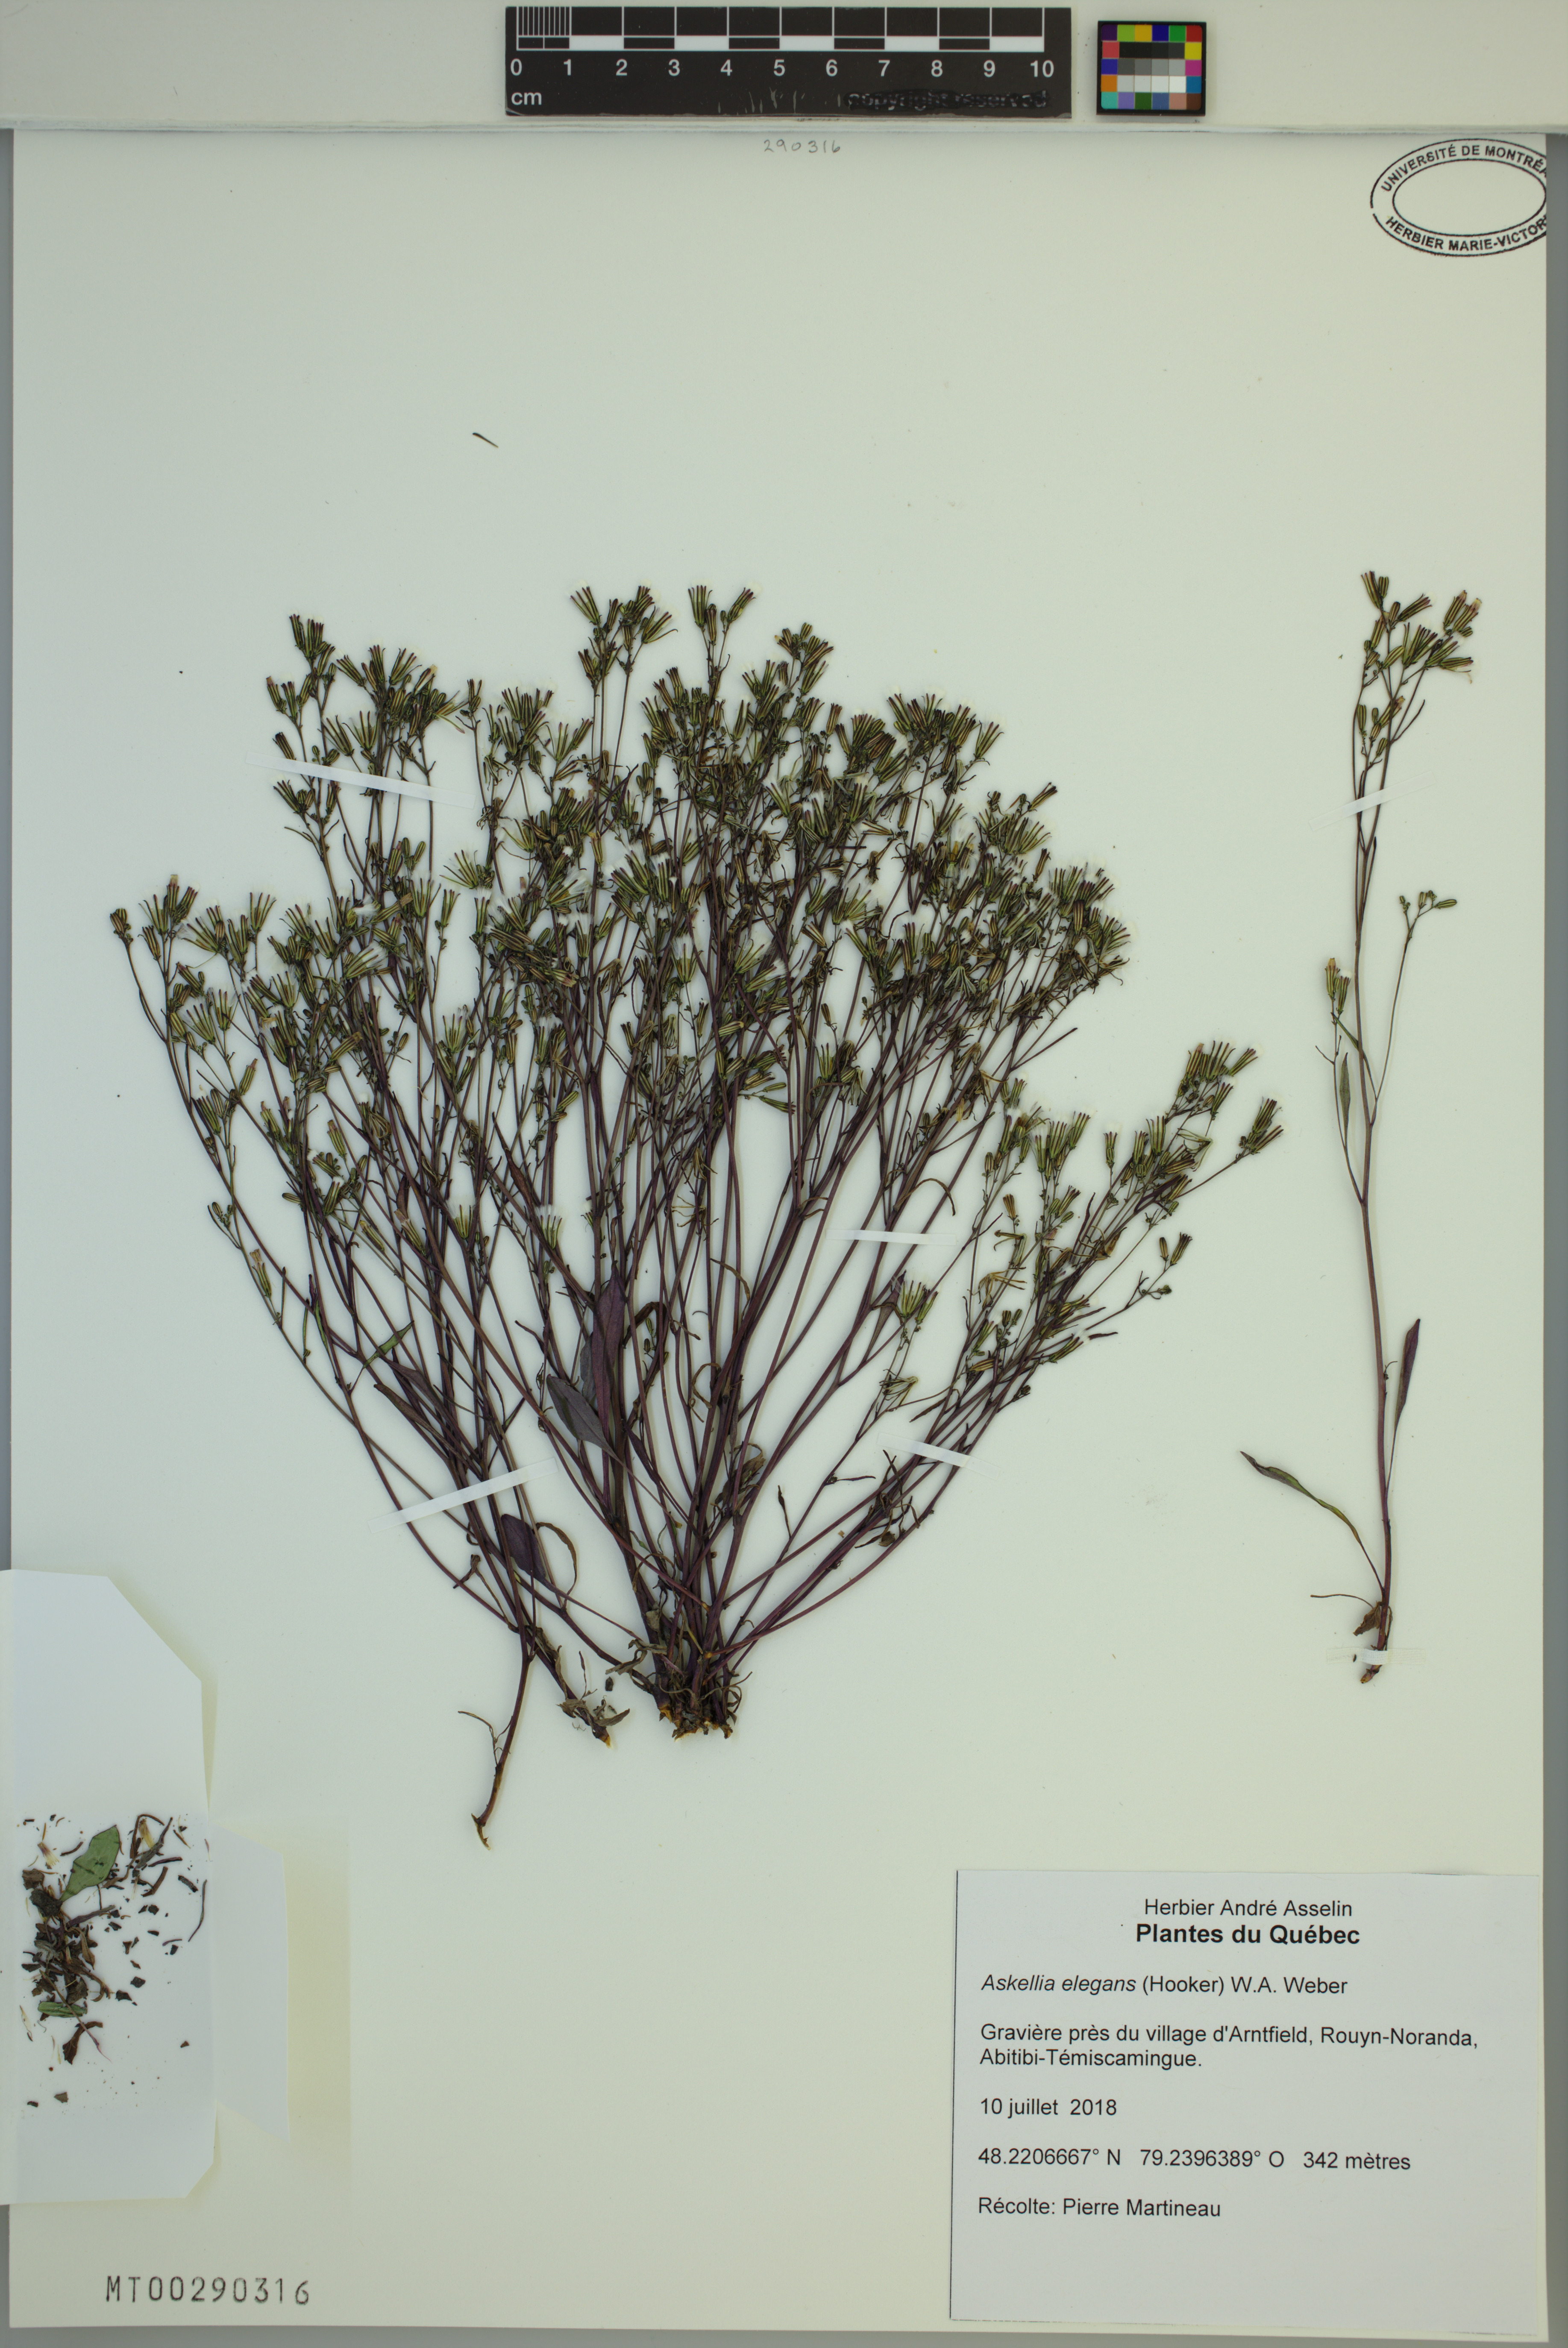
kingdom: Plantae
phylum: Tracheophyta
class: Magnoliopsida
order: Asterales
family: Asteraceae
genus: Askellia
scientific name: Askellia elegans
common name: Elegant hawksbeard
